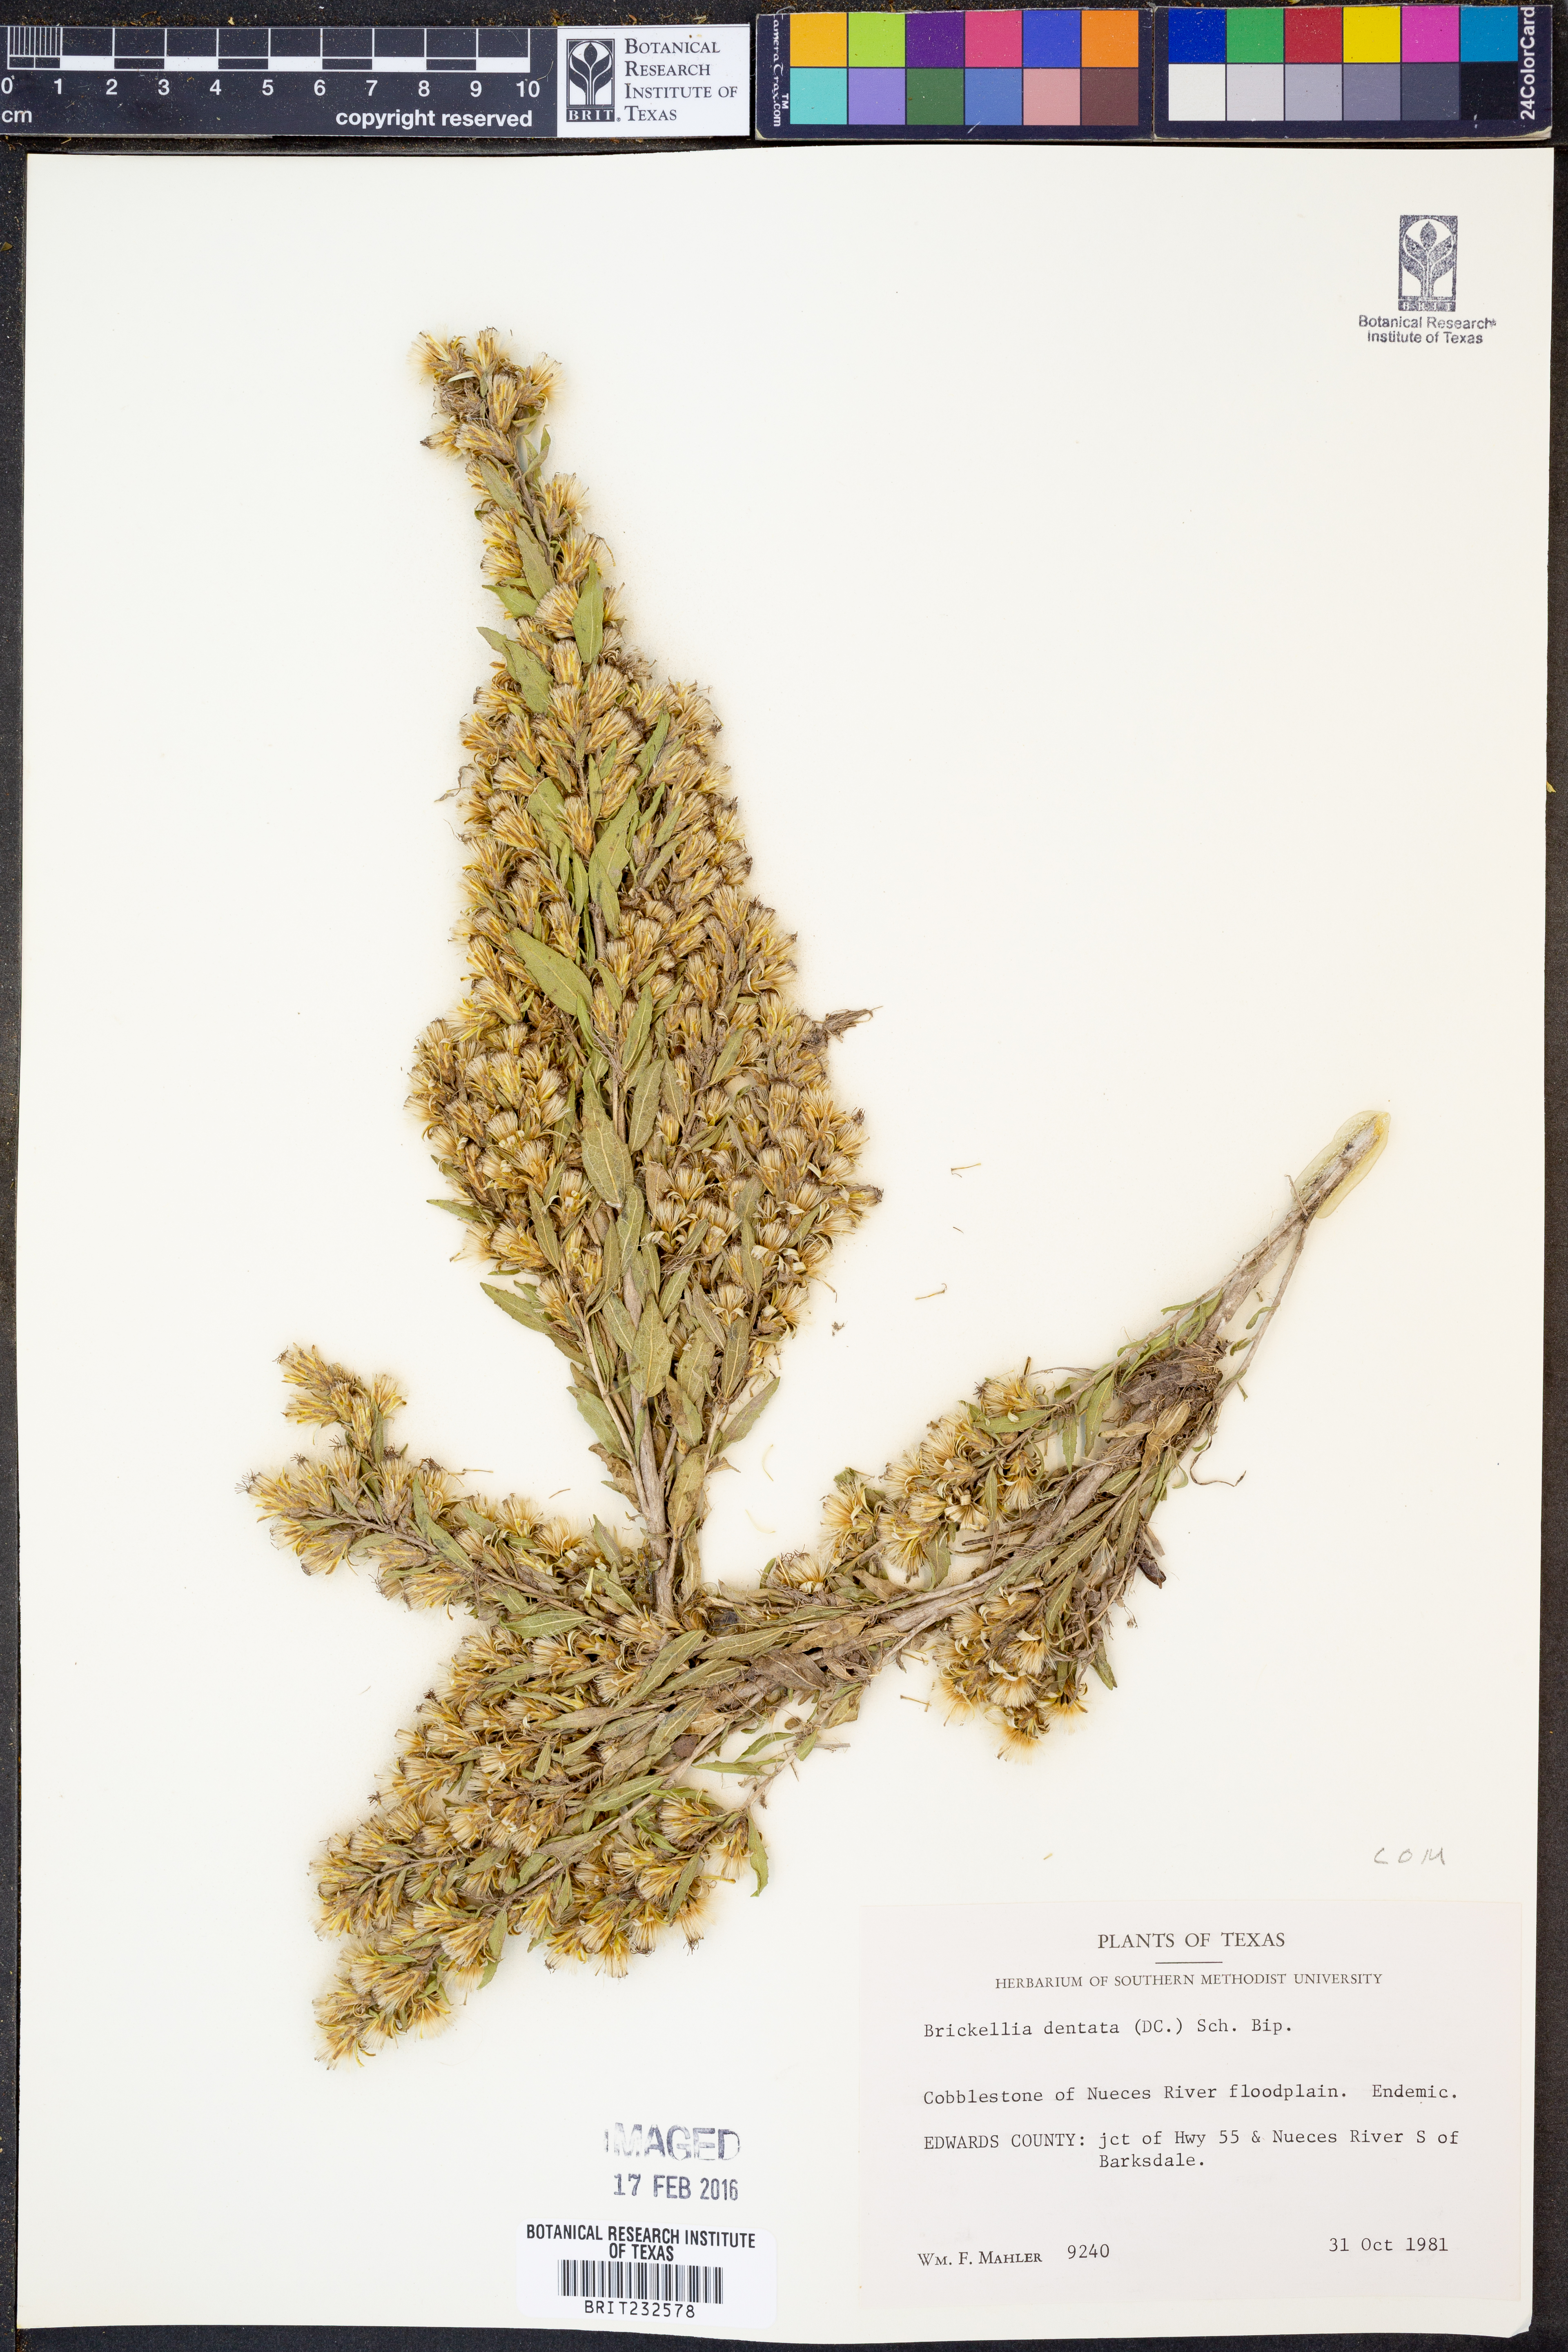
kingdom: Plantae
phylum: Tracheophyta
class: Magnoliopsida
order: Asterales
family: Asteraceae
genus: Brickellia
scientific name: Brickellia dentata
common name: Leafy brickellbush
